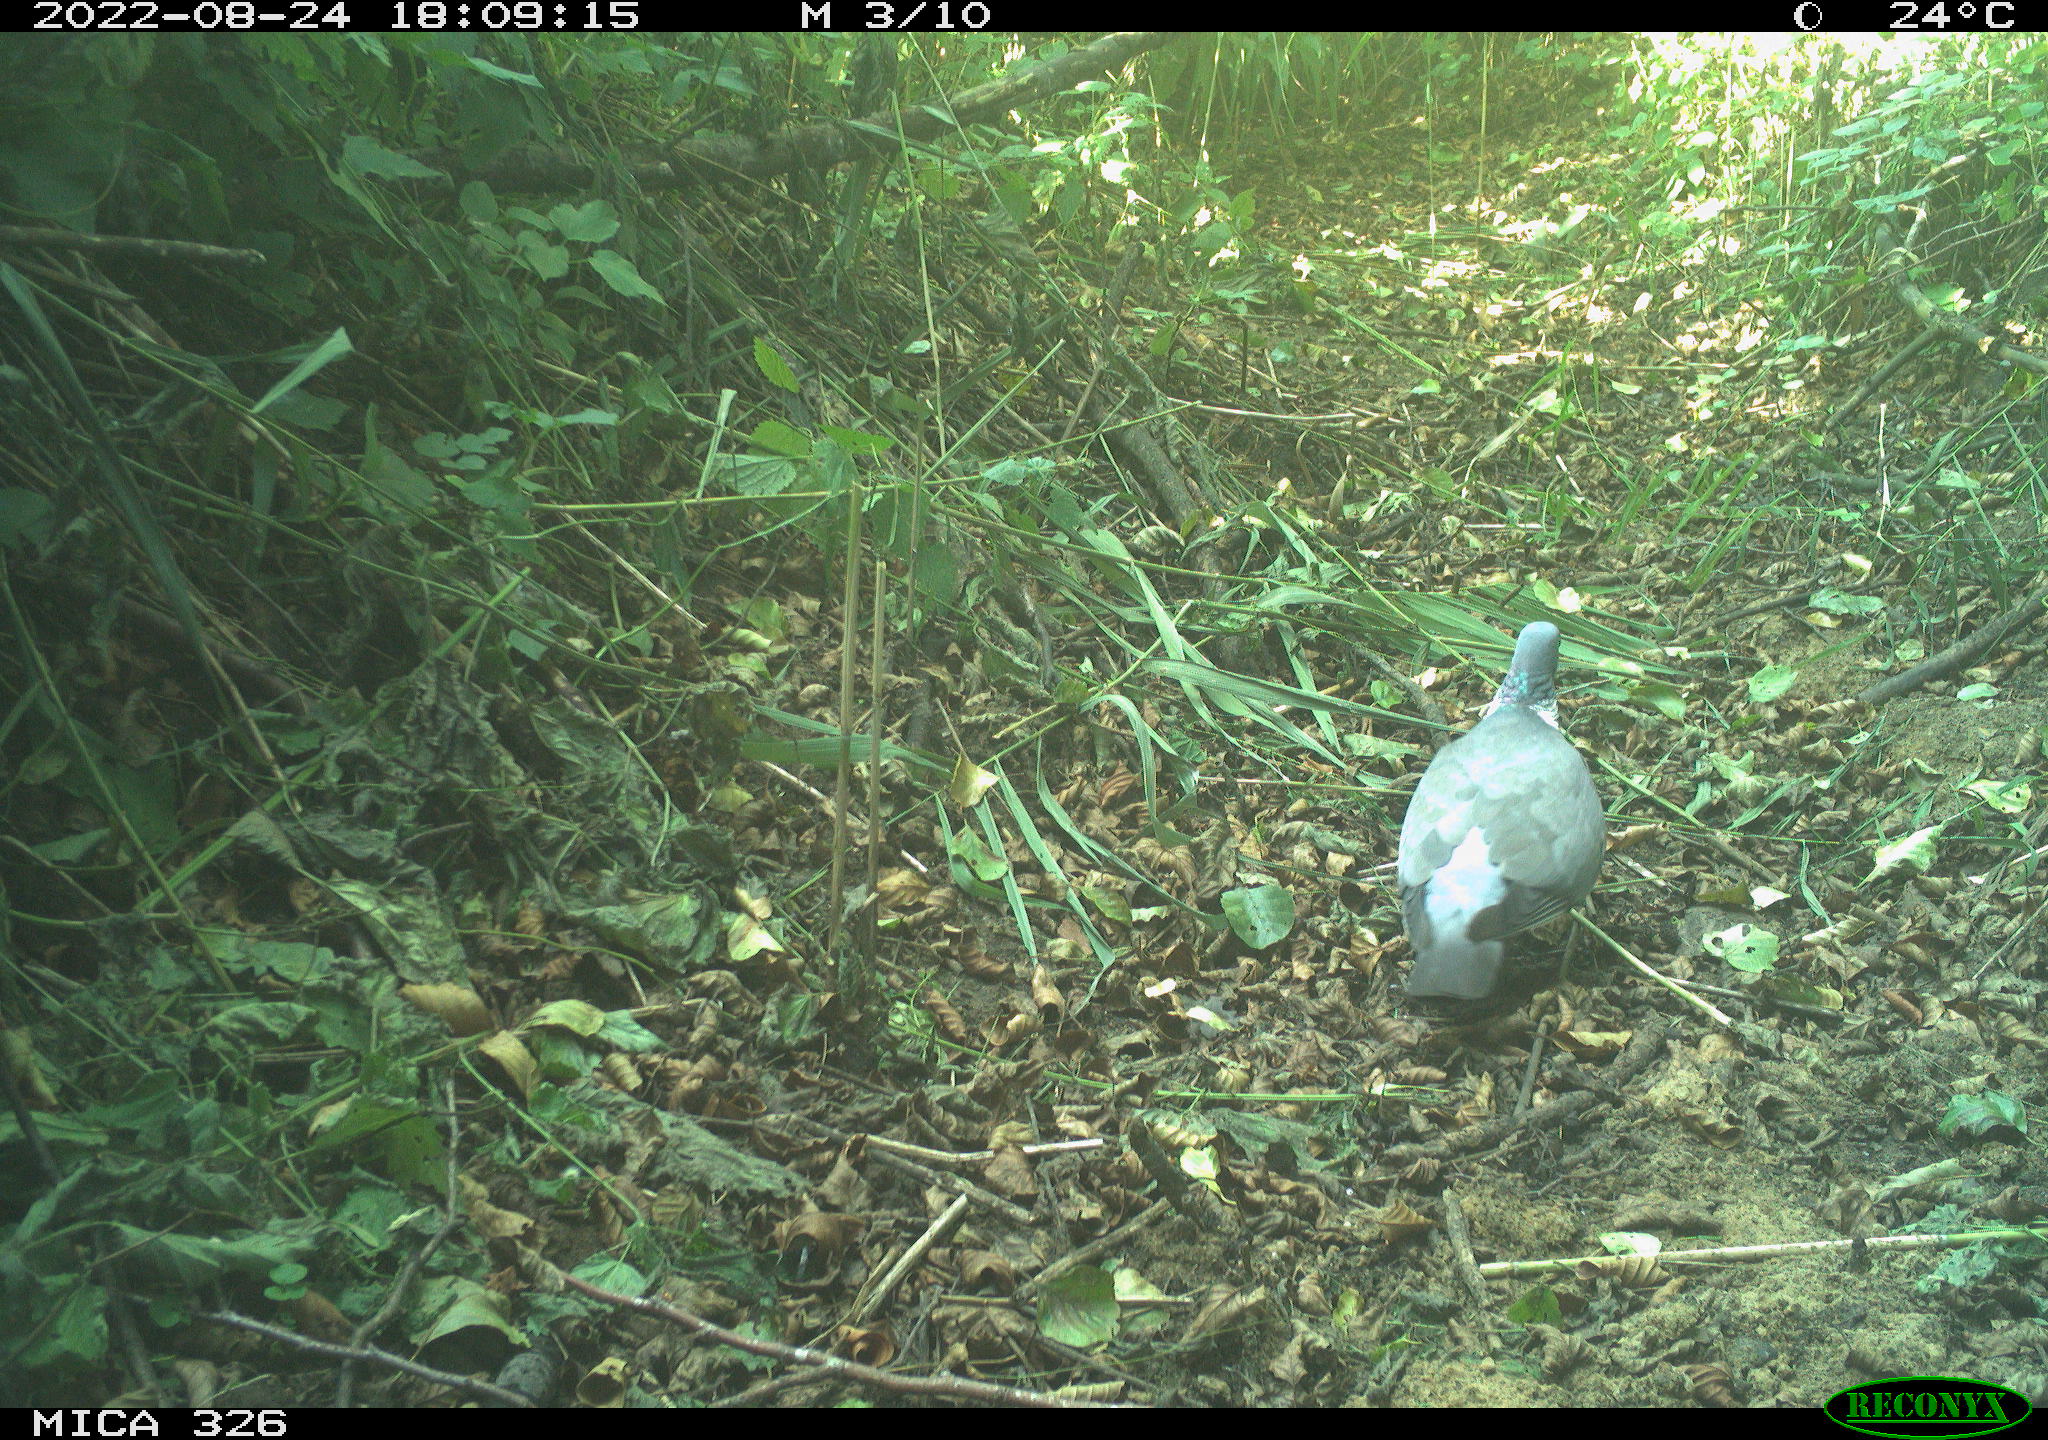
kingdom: Animalia
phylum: Chordata
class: Aves
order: Columbiformes
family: Columbidae
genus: Columba
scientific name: Columba palumbus
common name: Common wood pigeon
